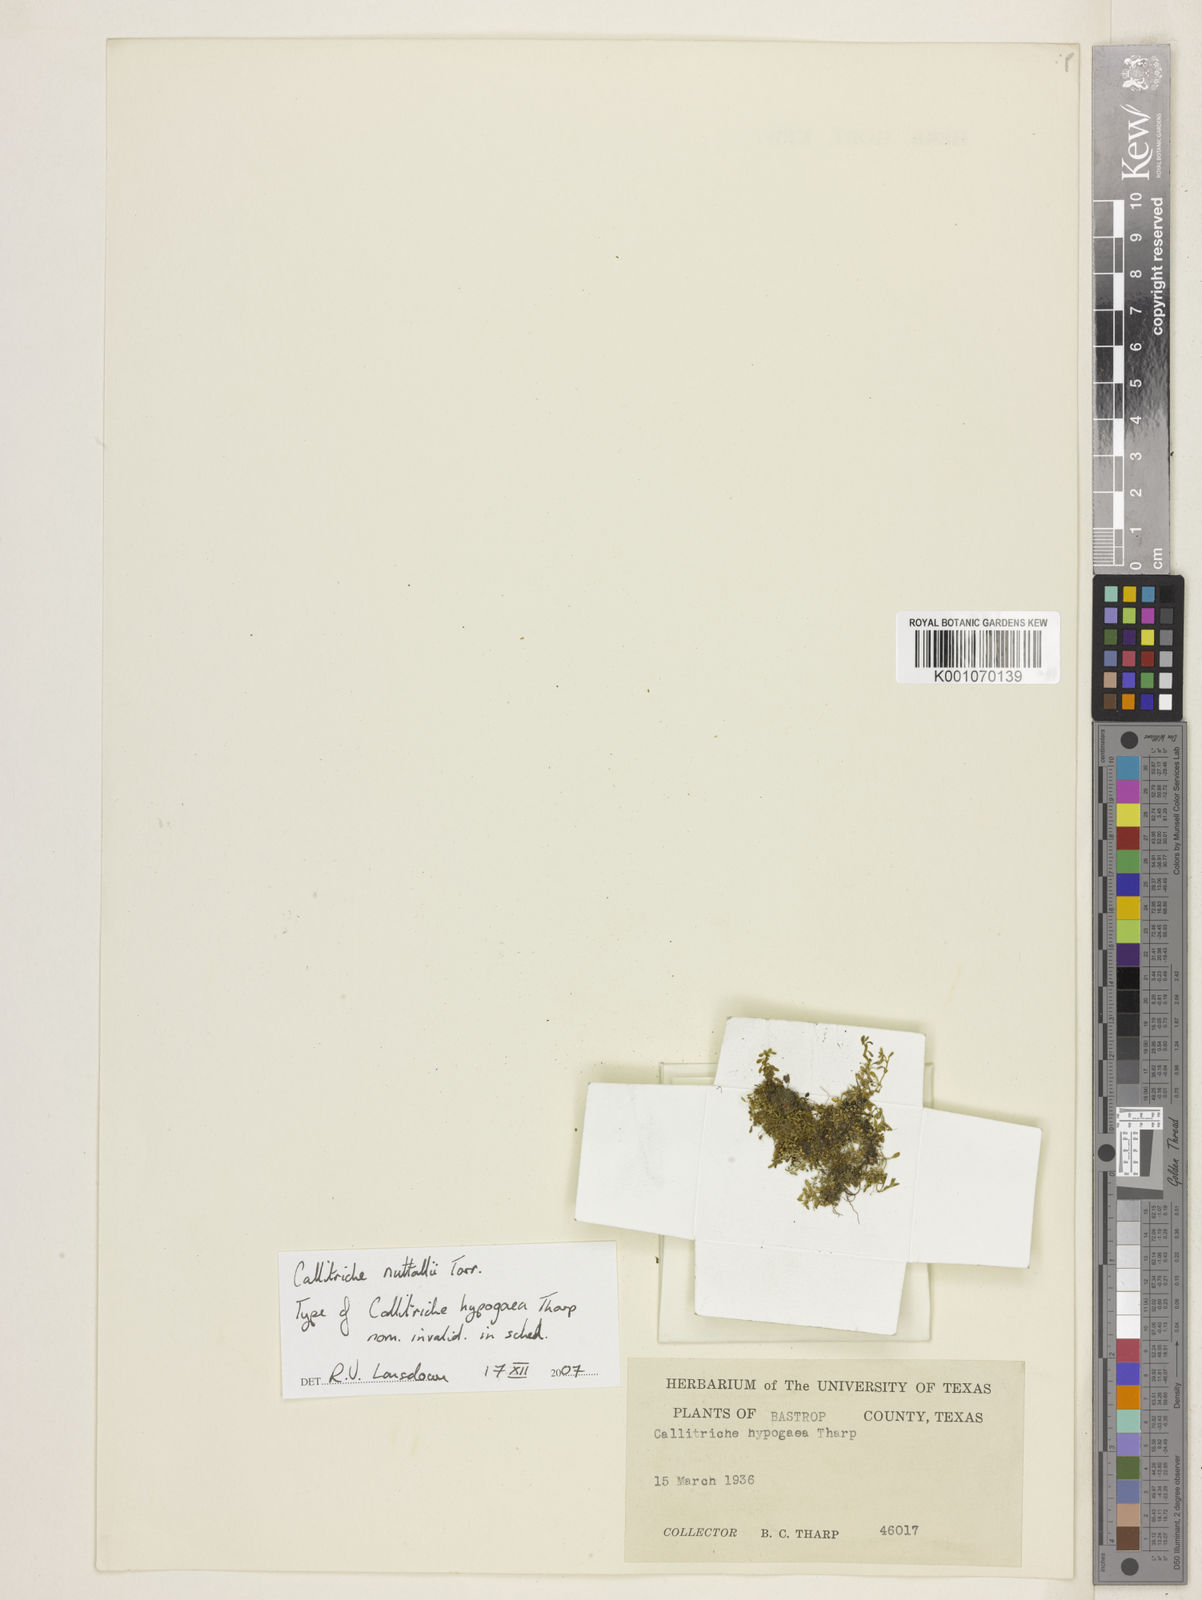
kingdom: Plantae
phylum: Tracheophyta
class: Magnoliopsida
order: Lamiales
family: Plantaginaceae
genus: Callitriche
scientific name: Callitriche
